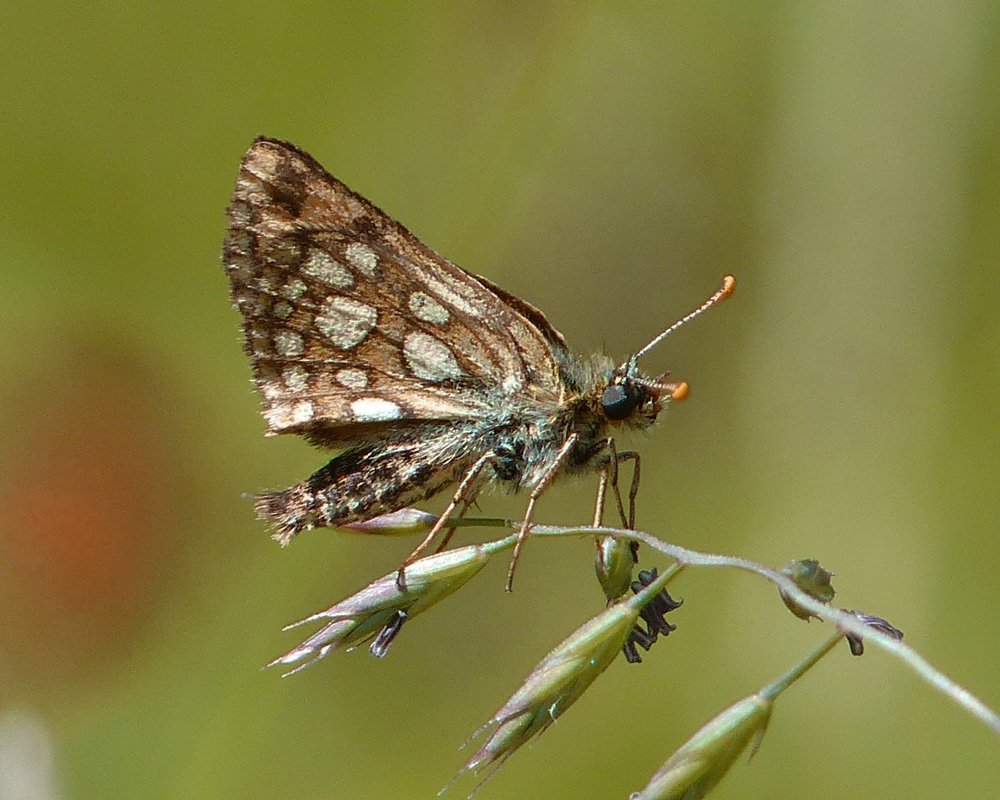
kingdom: Animalia
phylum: Arthropoda
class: Insecta
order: Lepidoptera
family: Hesperiidae
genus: Carterocephalus
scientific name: Carterocephalus palaemon
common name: Chequered Skipper
